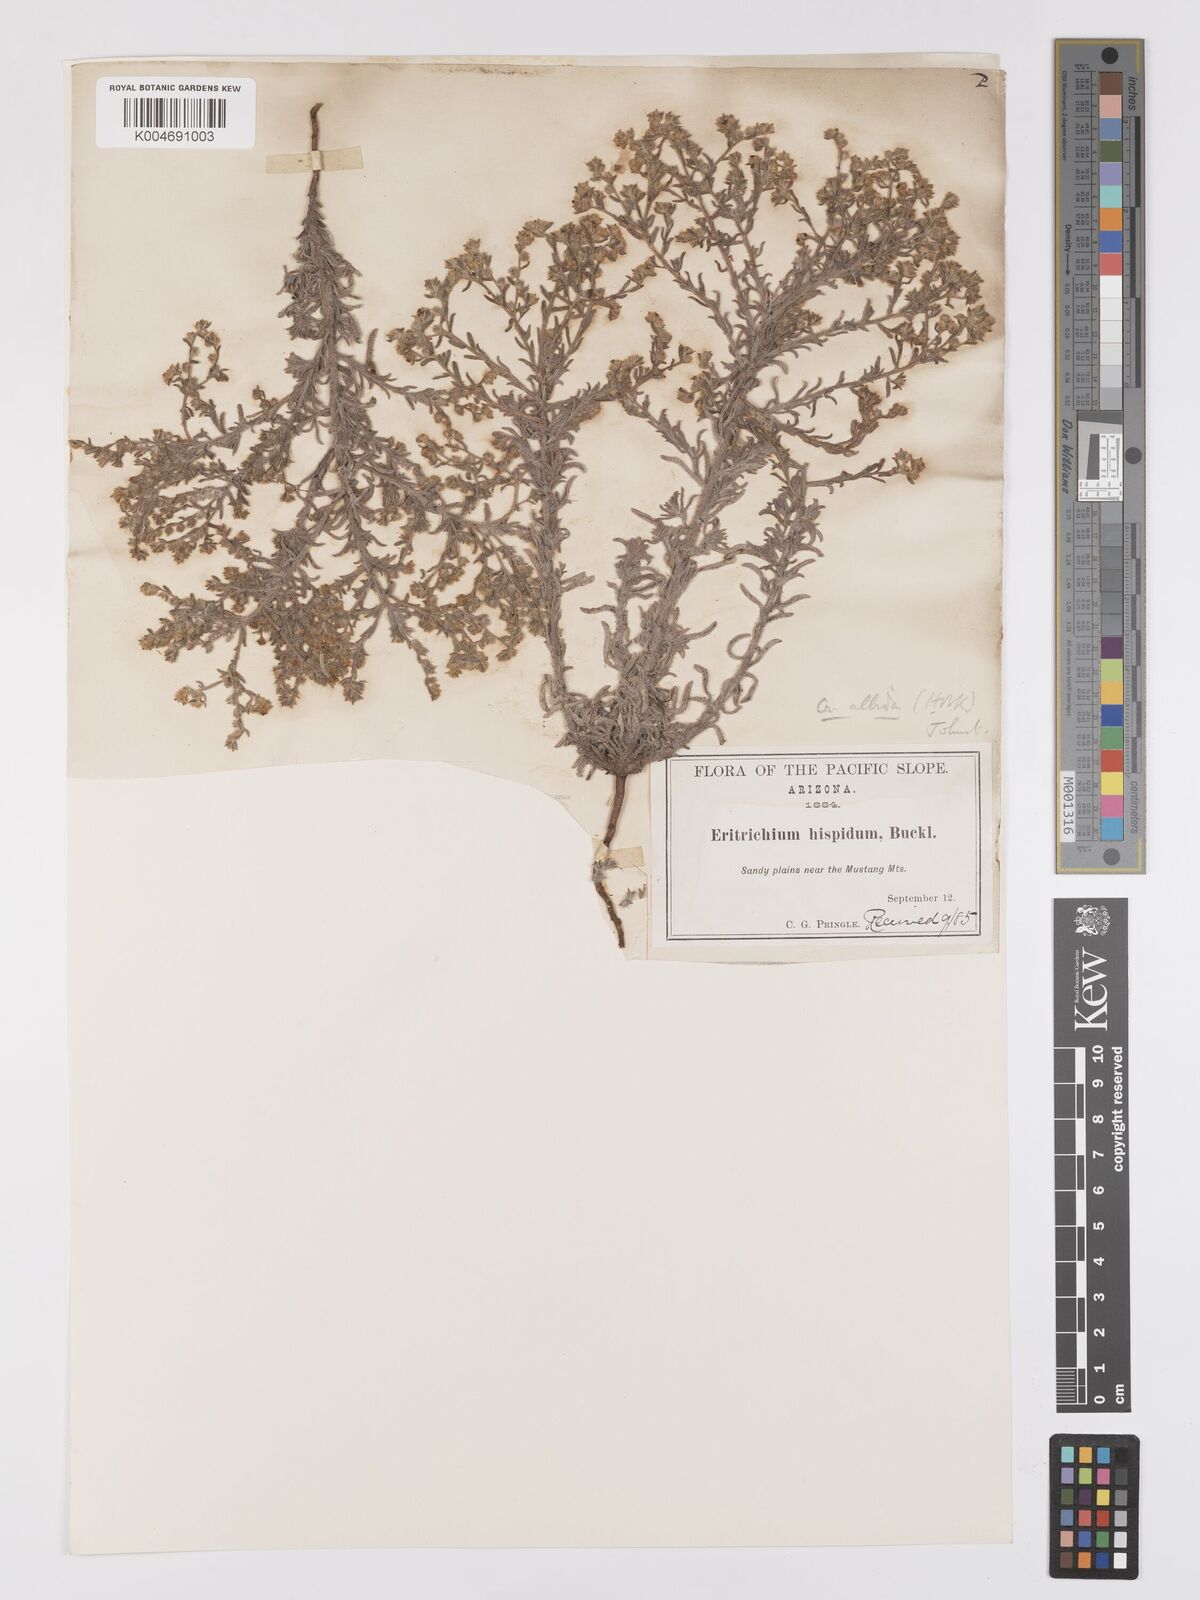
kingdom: Plantae
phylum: Tracheophyta
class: Magnoliopsida
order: Boraginales
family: Boraginaceae
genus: Johnstonella
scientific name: Johnstonella albida
